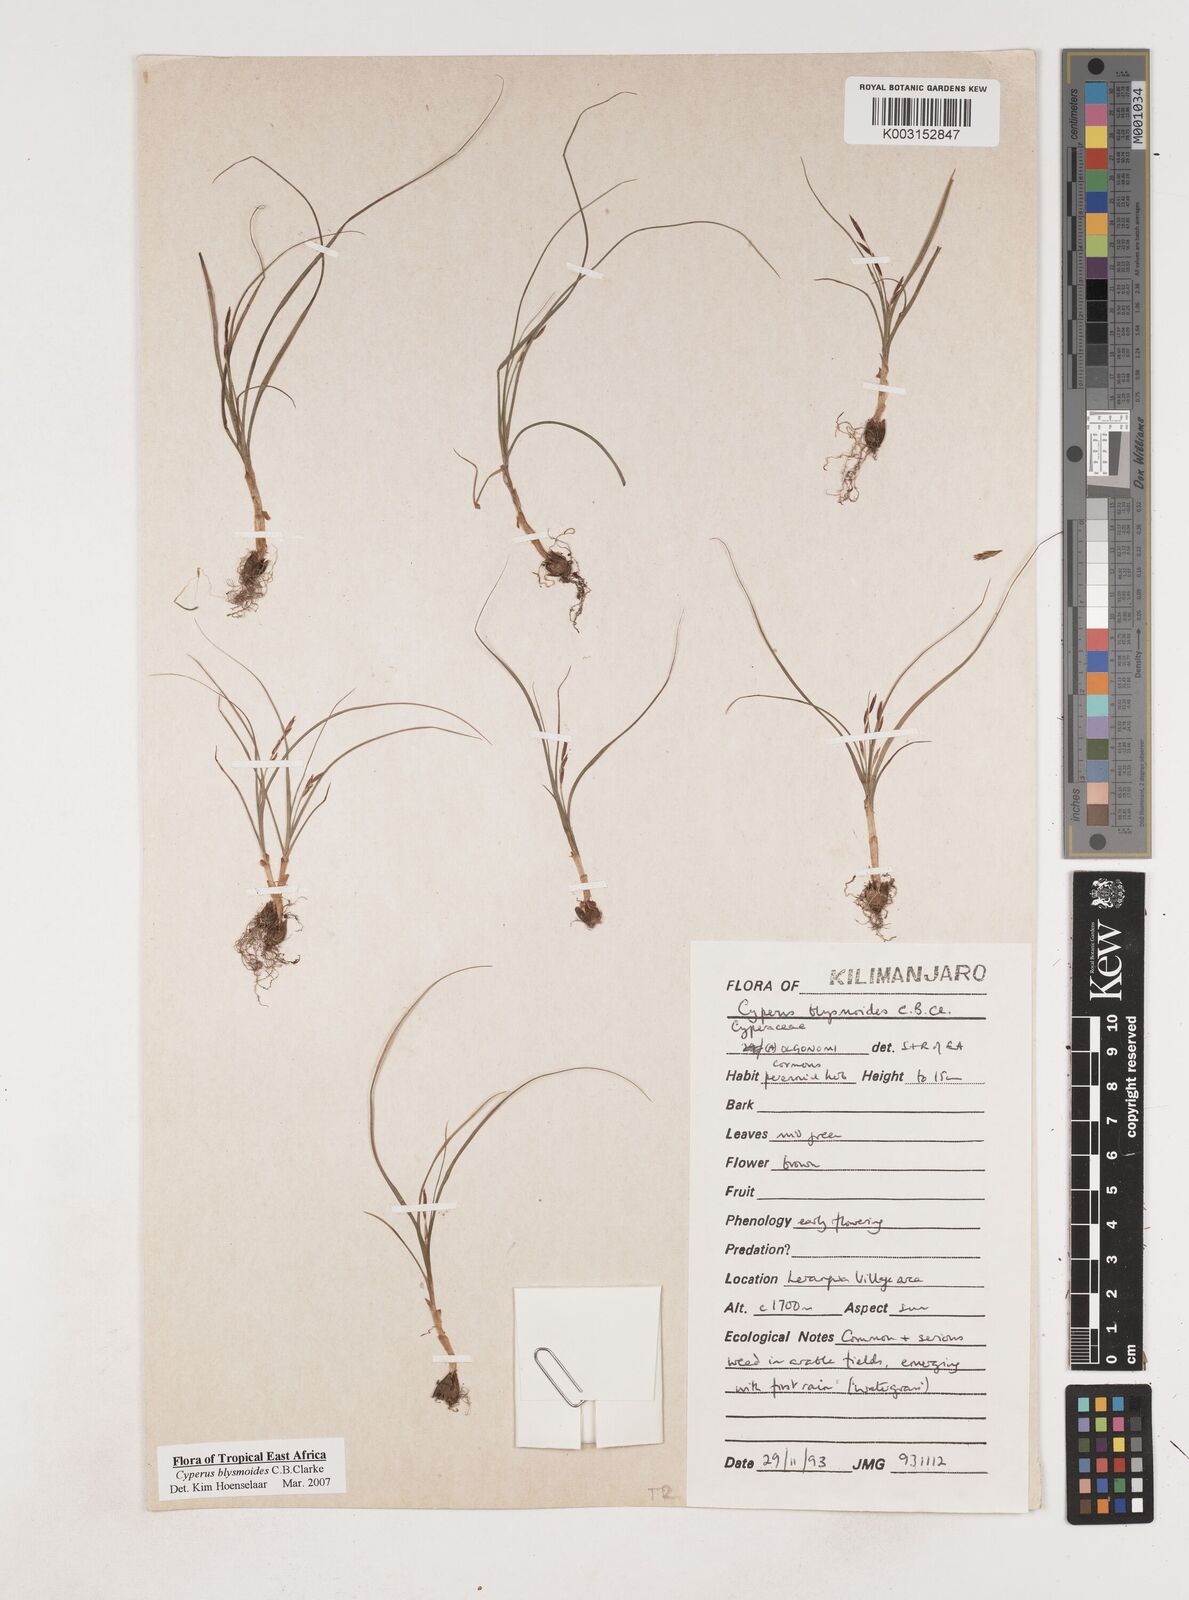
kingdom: Plantae
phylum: Tracheophyta
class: Liliopsida
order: Poales
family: Cyperaceae
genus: Cyperus
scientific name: Cyperus blysmoides
